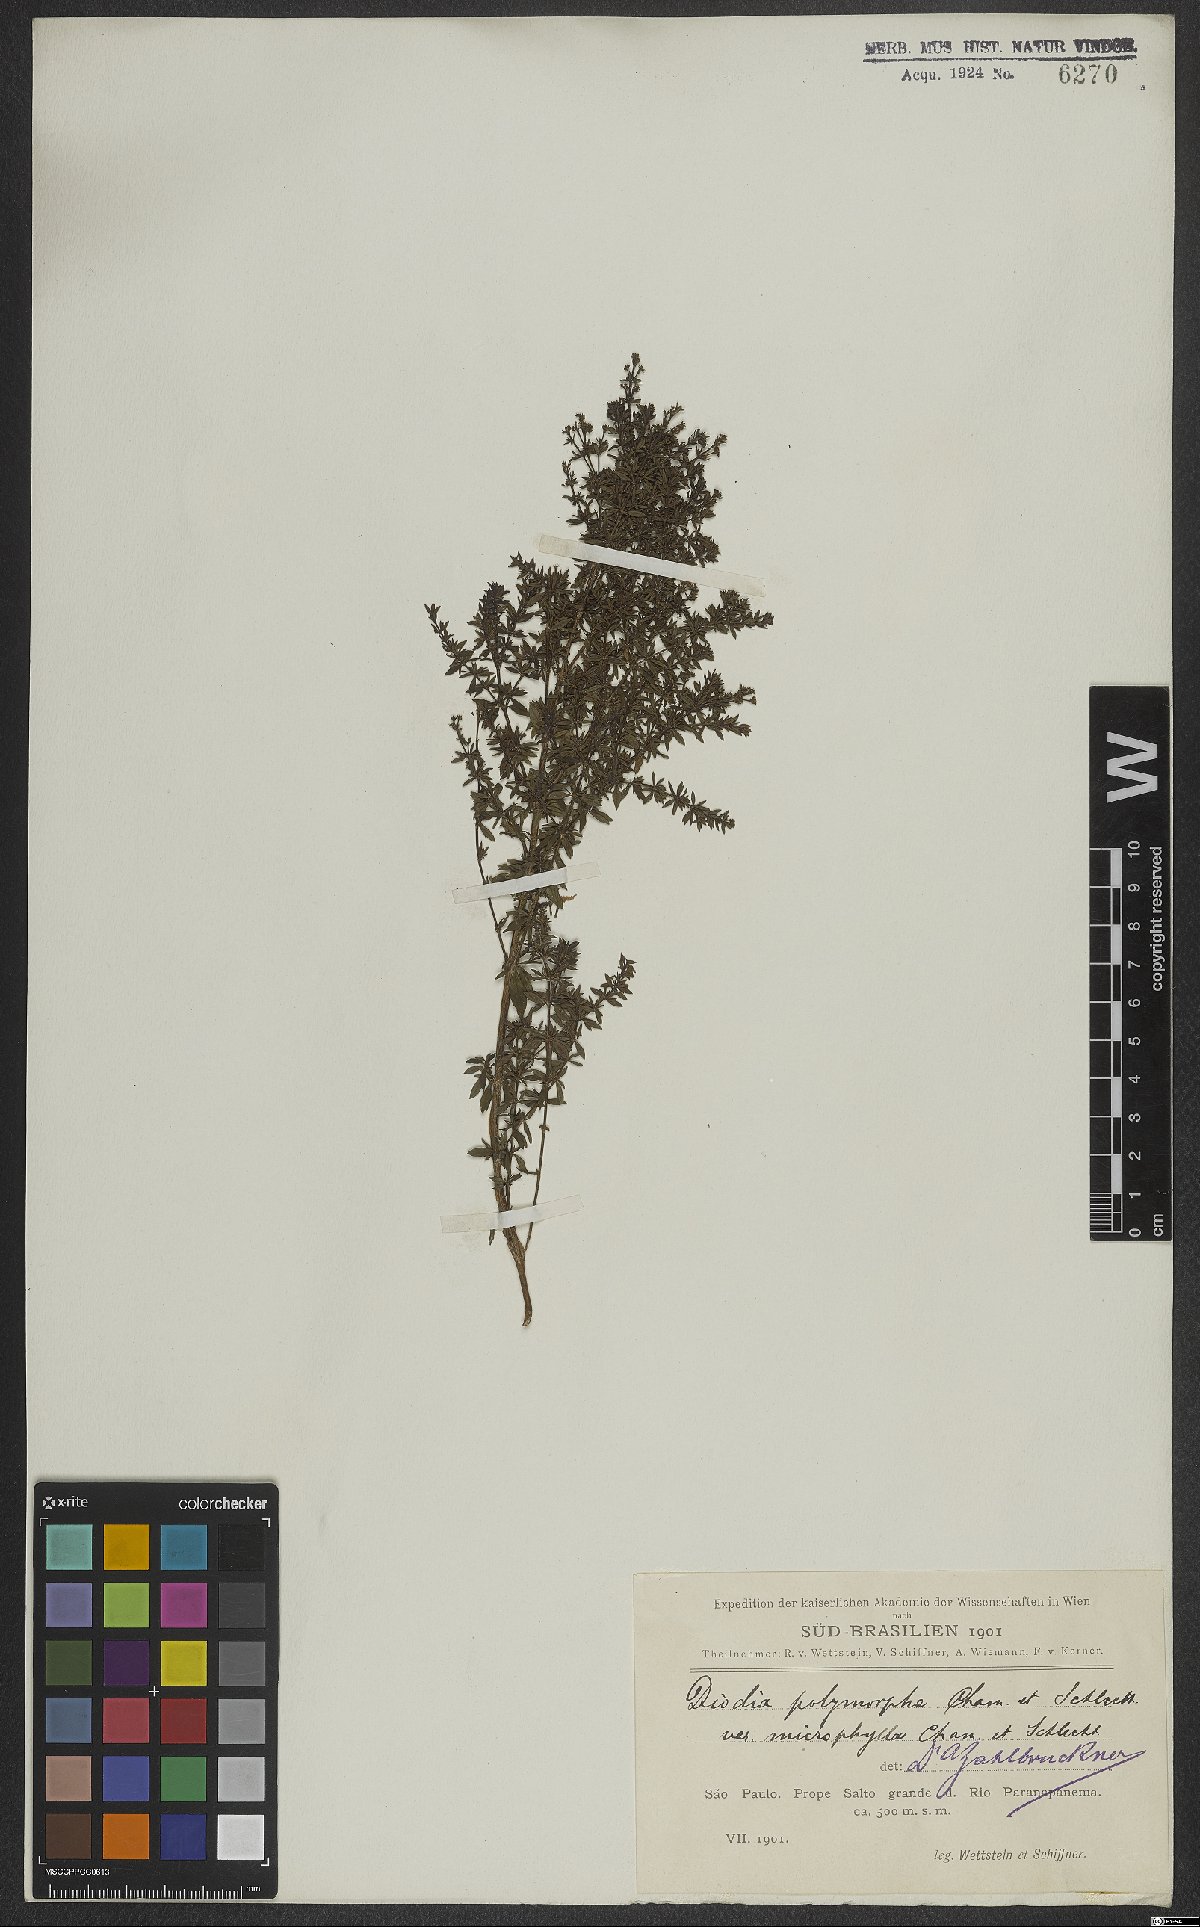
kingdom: Plantae
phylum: Tracheophyta
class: Magnoliopsida
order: Gentianales
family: Rubiaceae
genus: Galianthe
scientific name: Galianthe brasiliensis
